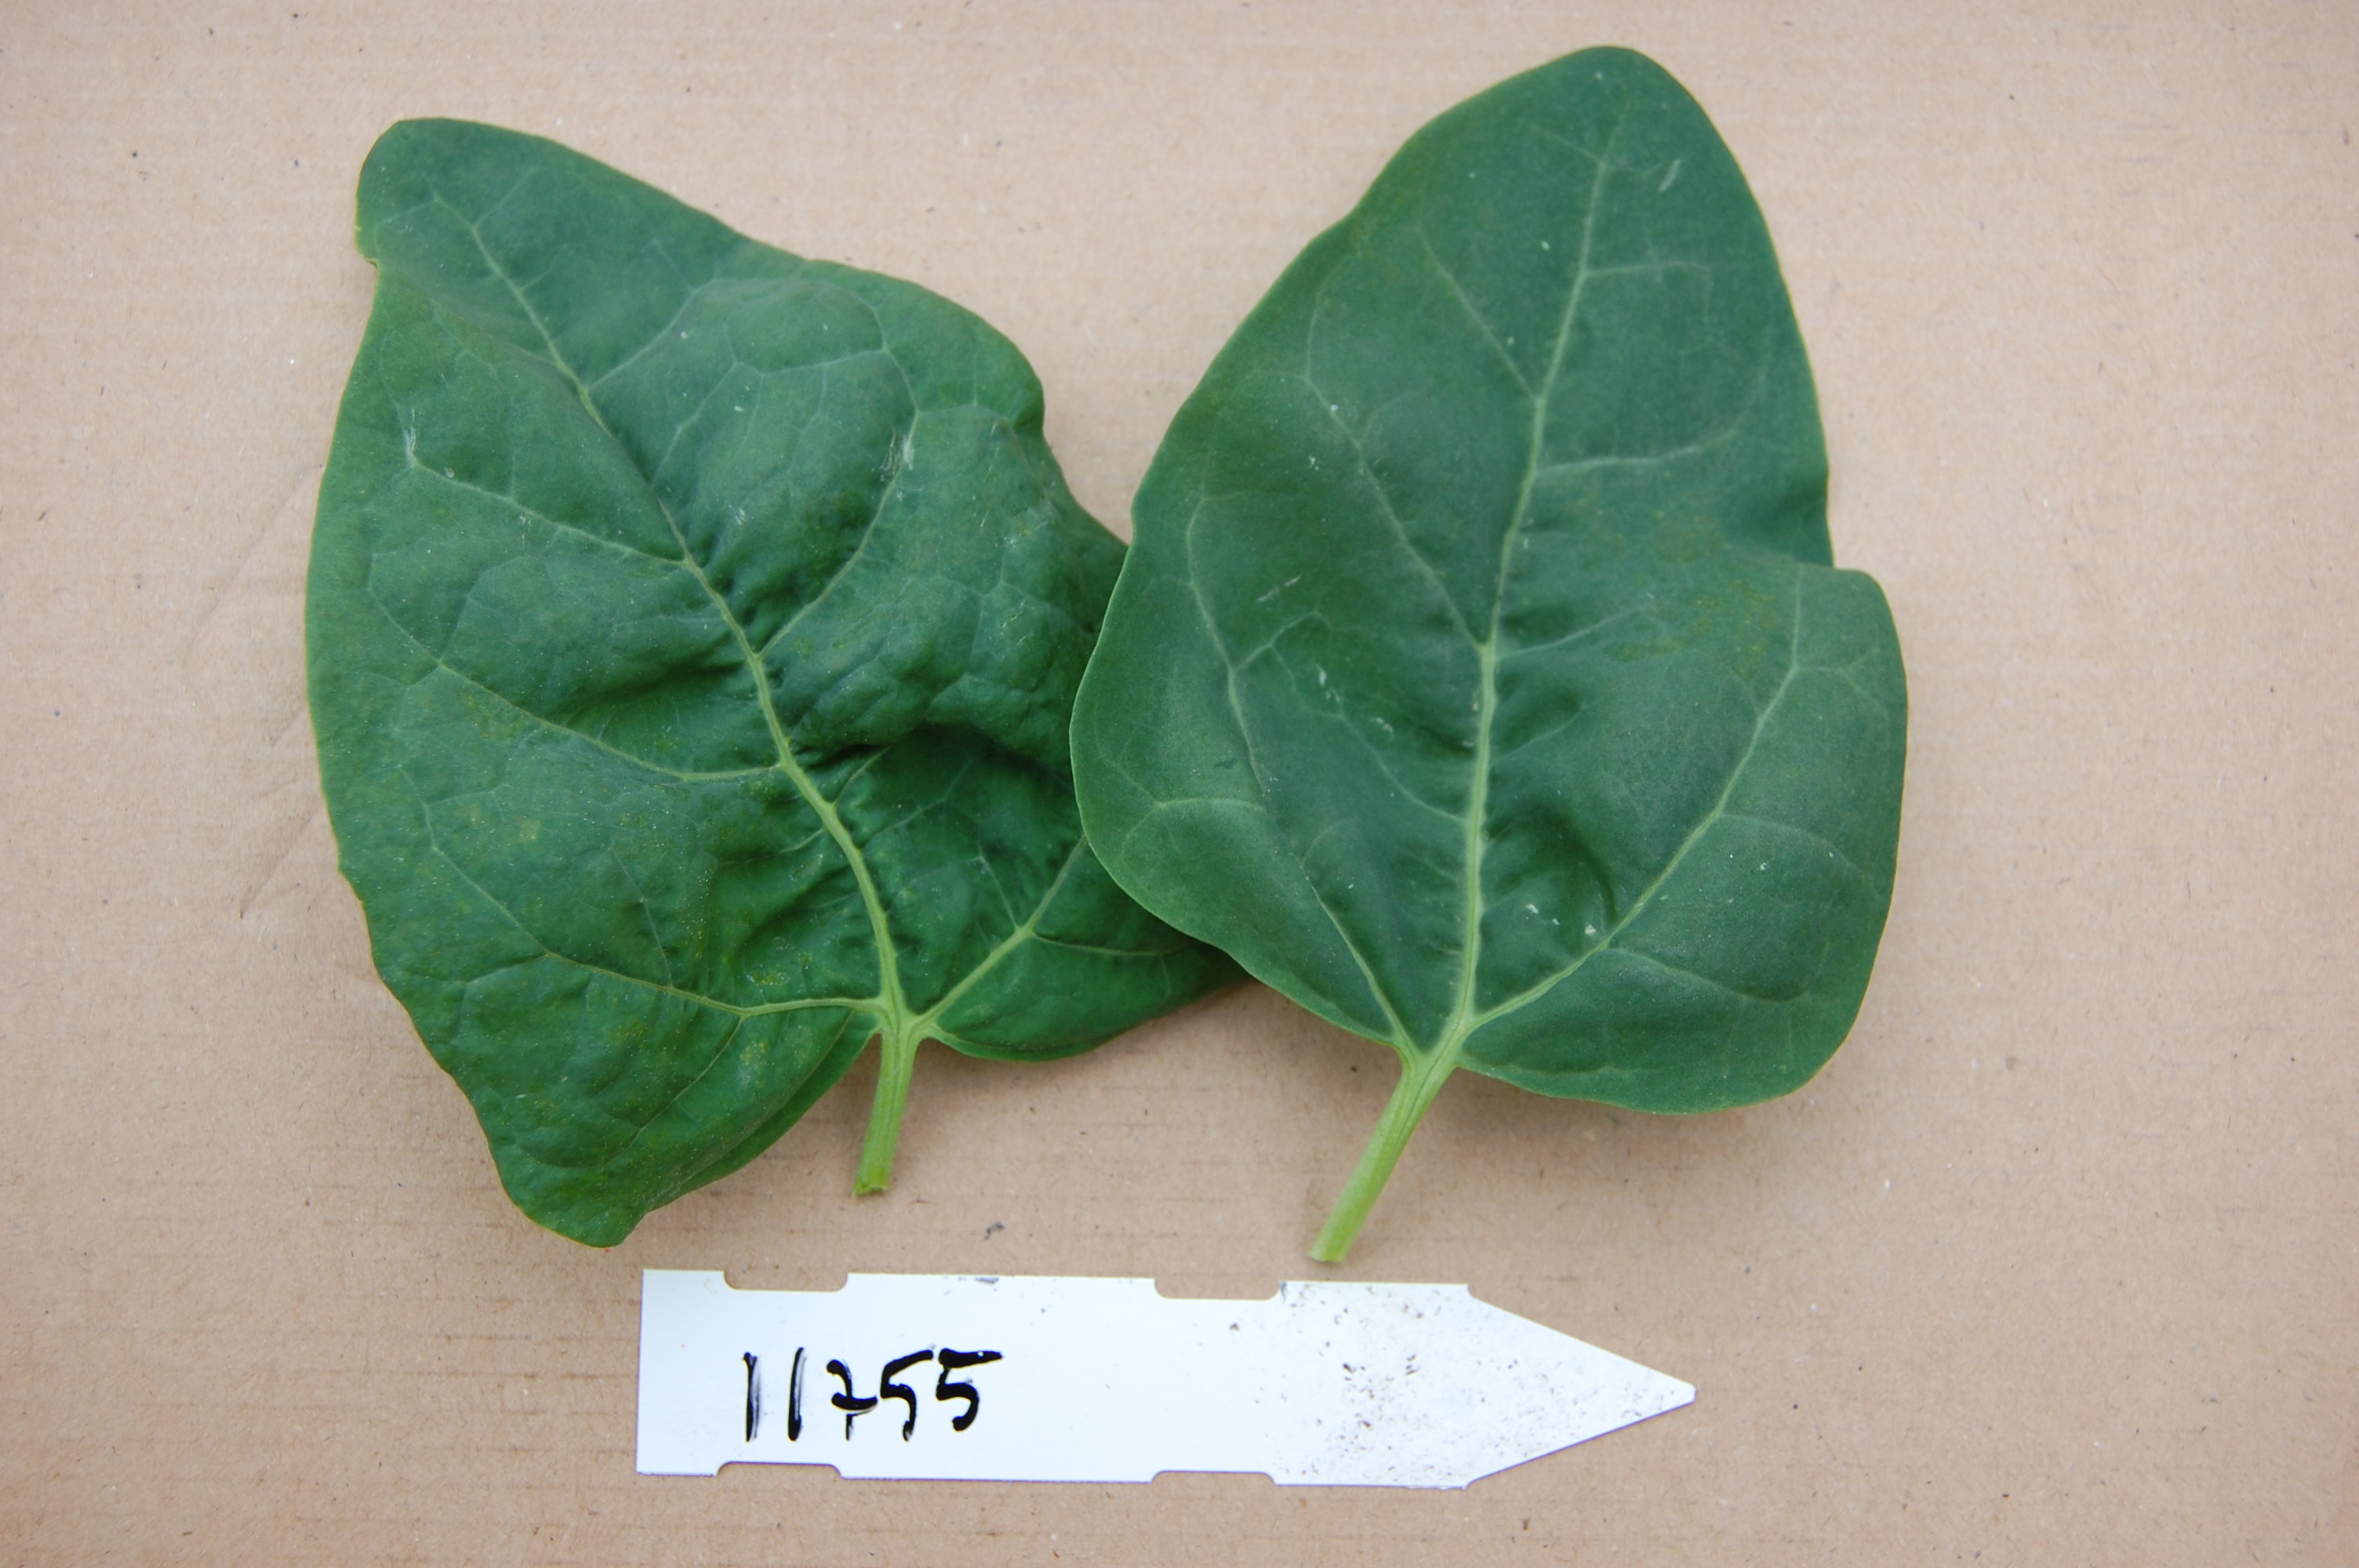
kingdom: Plantae
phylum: Tracheophyta
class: Magnoliopsida
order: Caryophyllales
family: Amaranthaceae
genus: Atriplex
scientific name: Atriplex hortensis
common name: Garden orache
